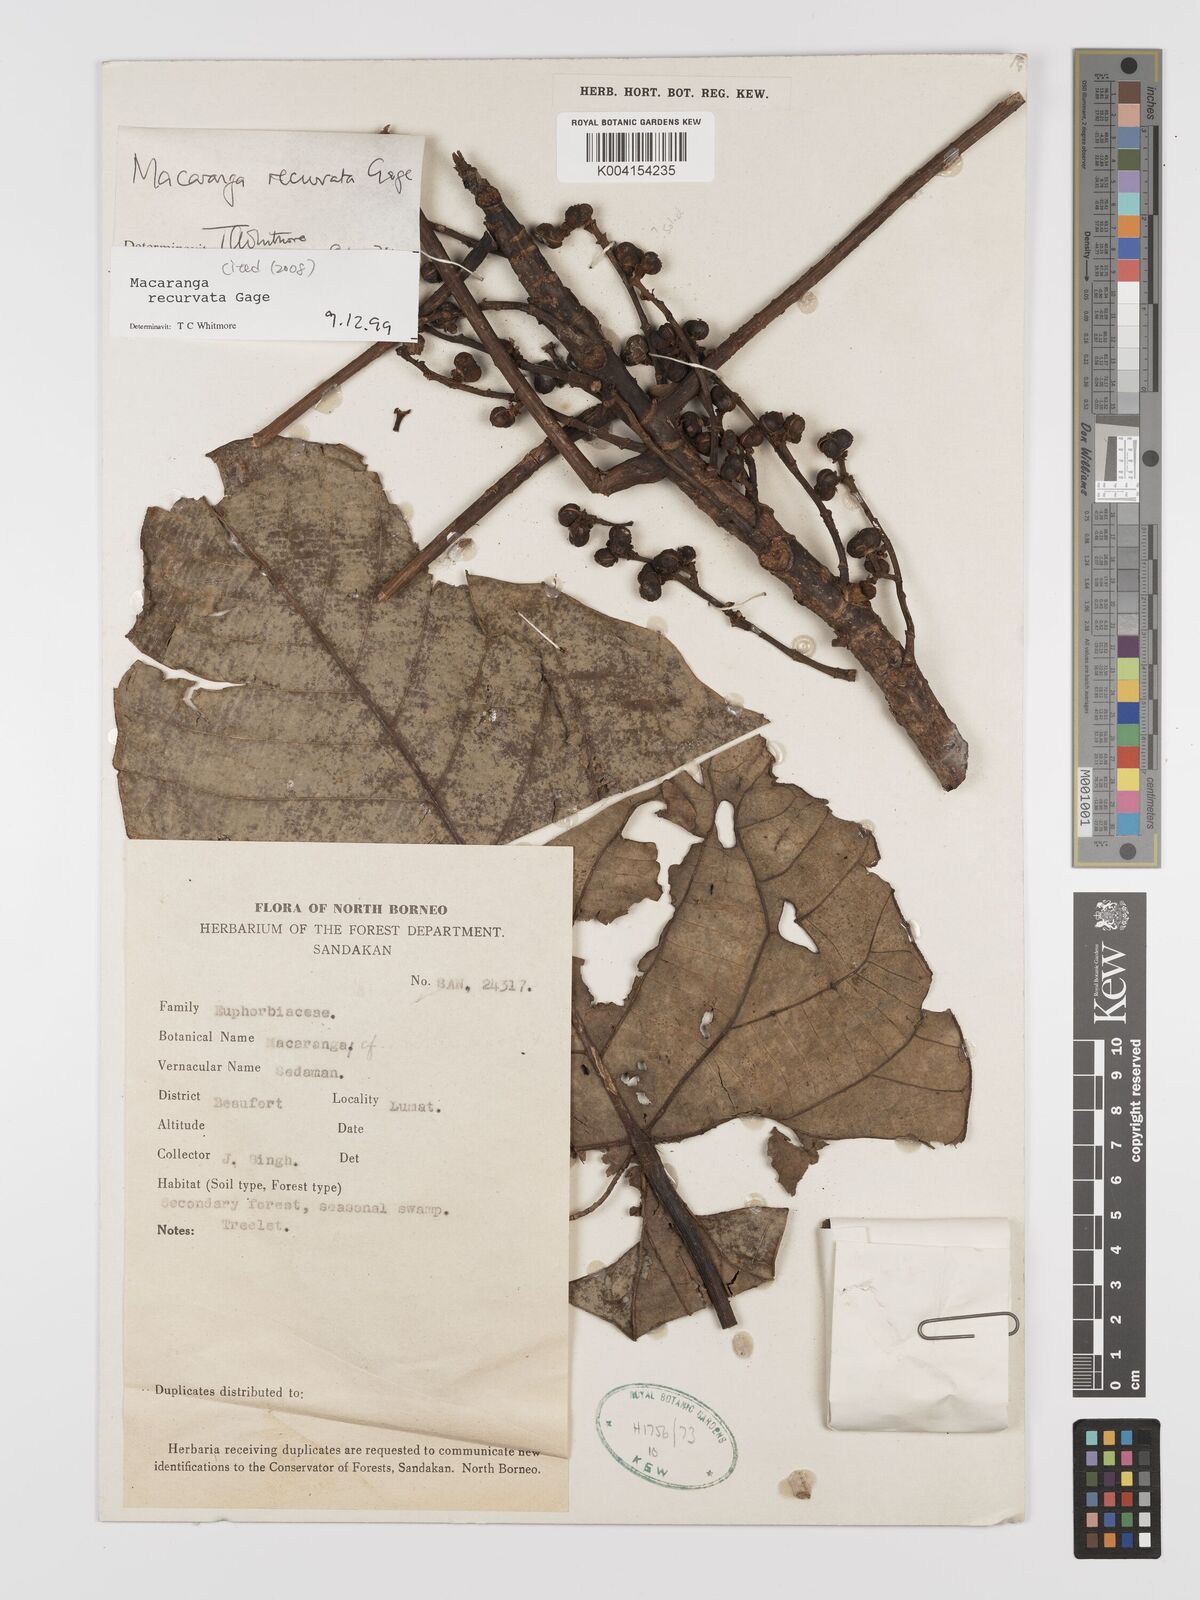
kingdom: Plantae
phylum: Tracheophyta
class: Magnoliopsida
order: Malpighiales
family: Euphorbiaceae
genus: Macaranga
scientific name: Macaranga recurvata
